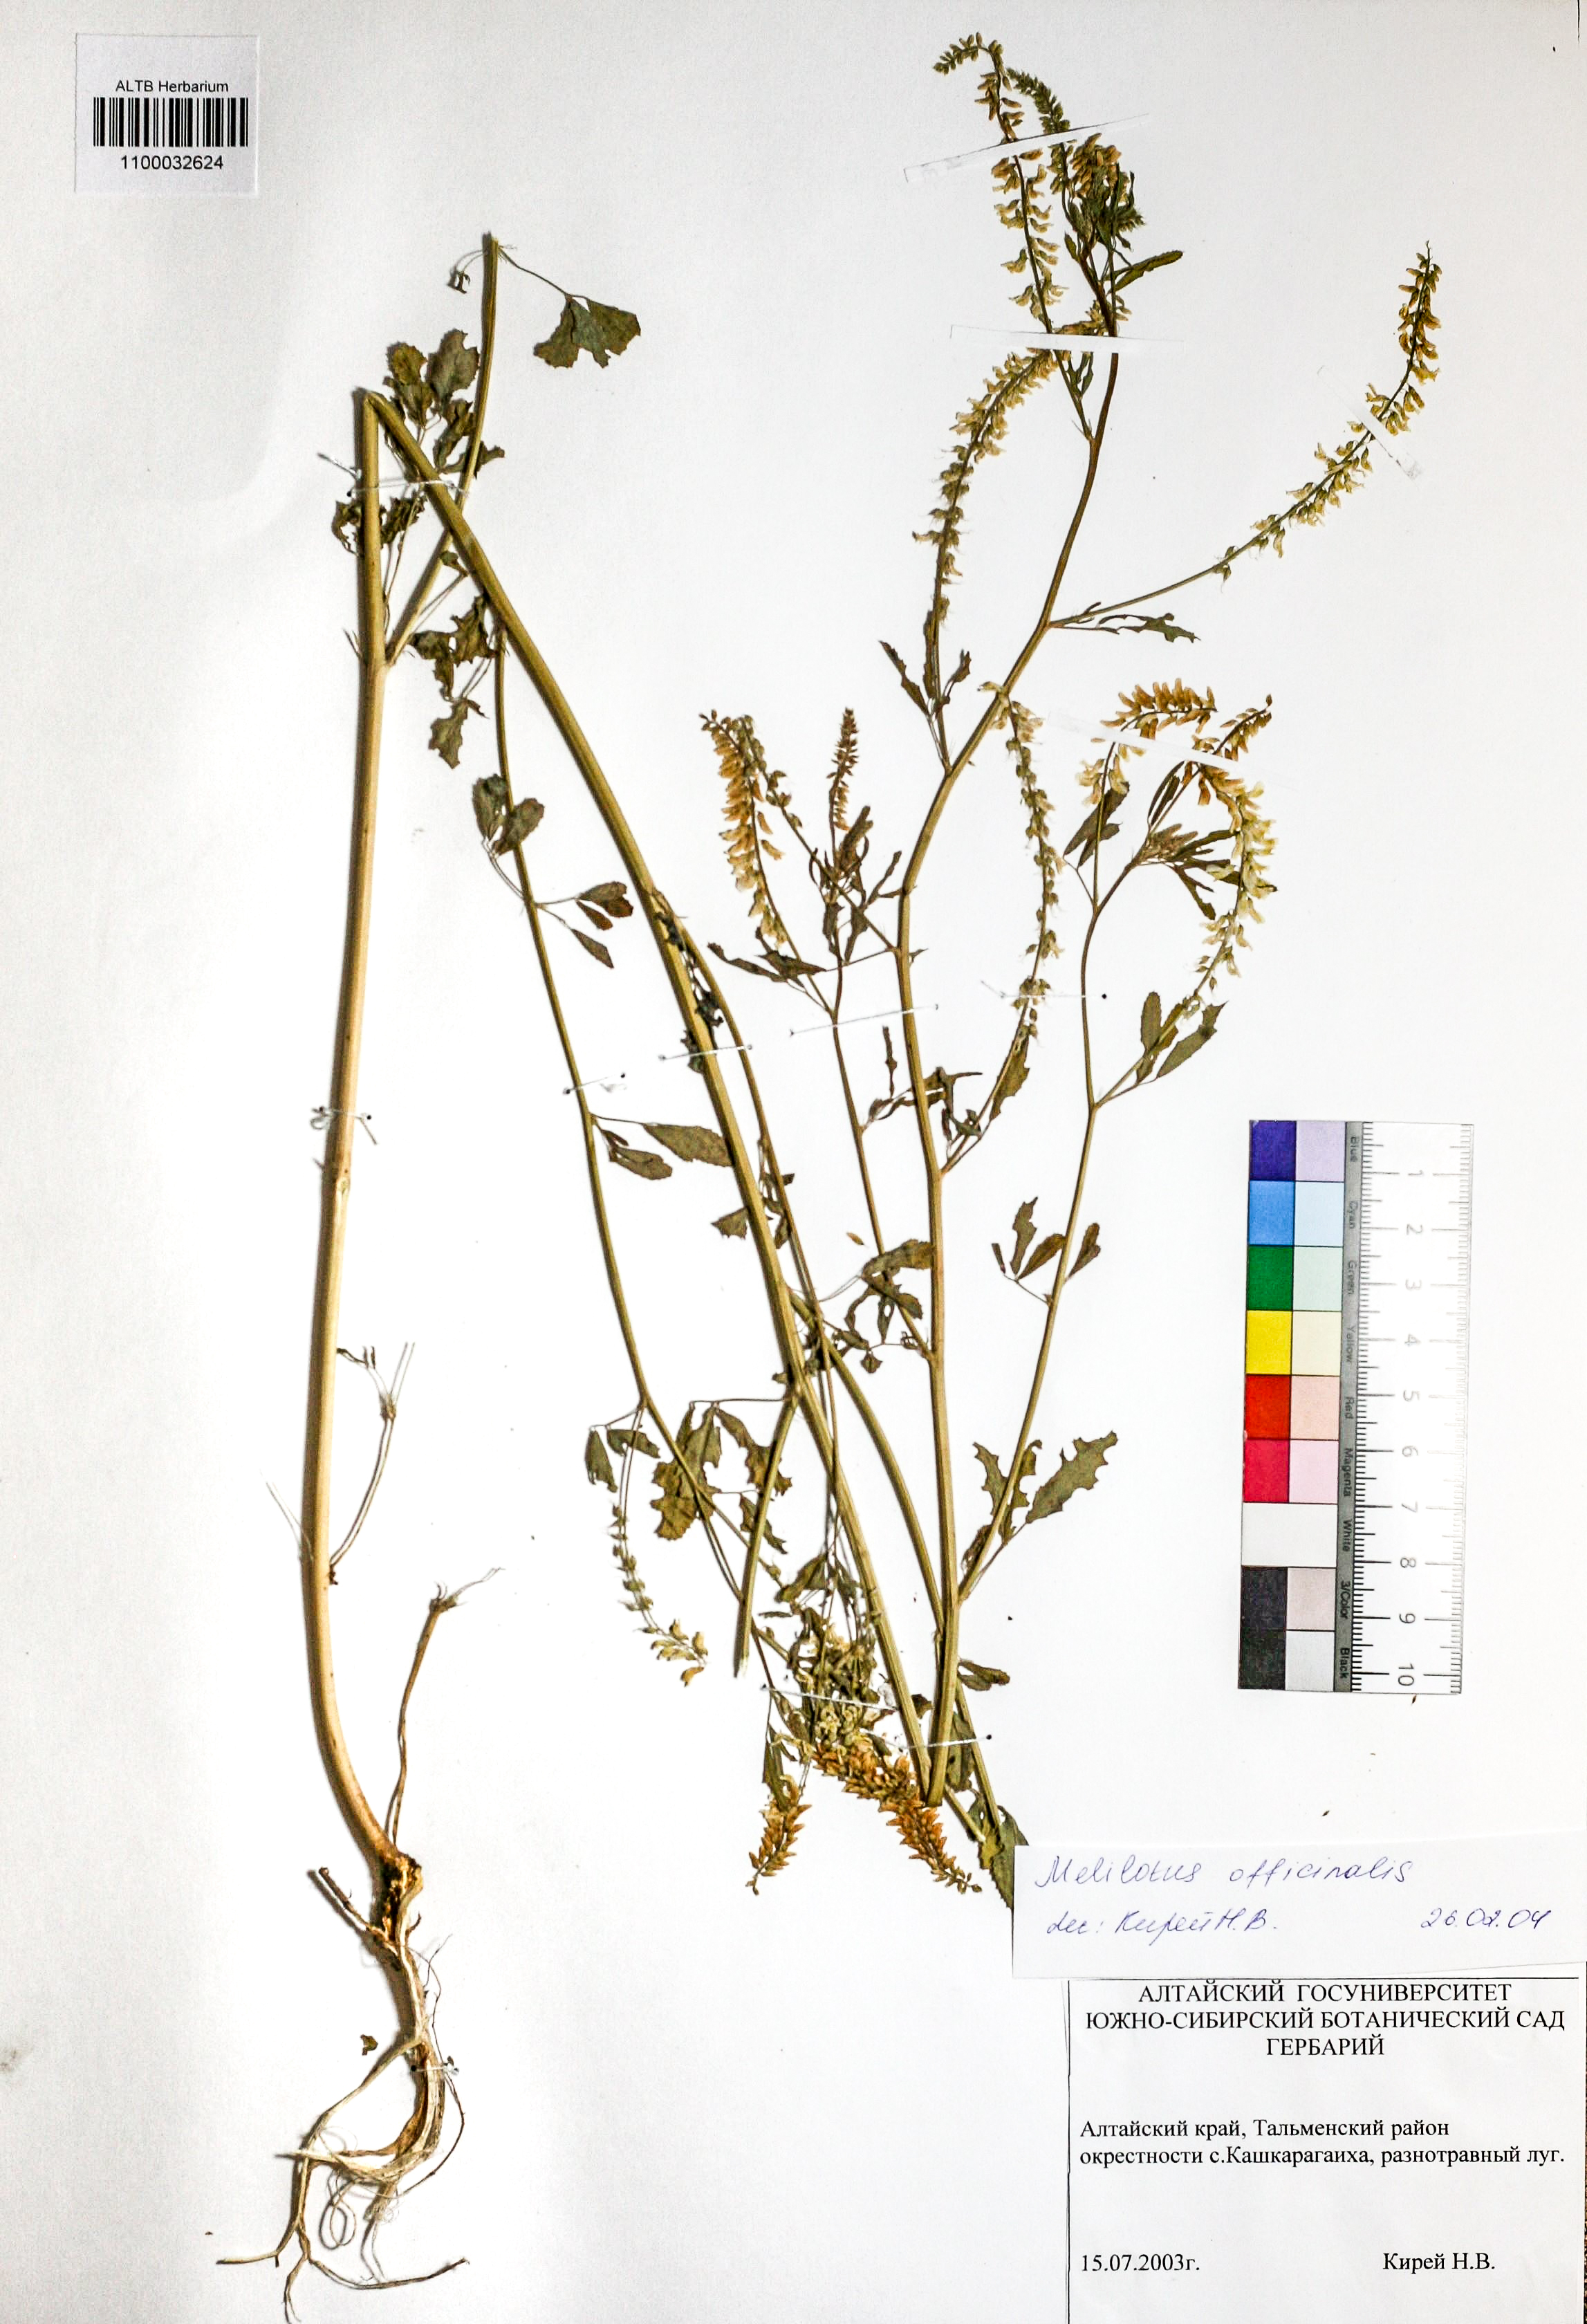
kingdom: Plantae
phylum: Tracheophyta
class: Magnoliopsida
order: Fabales
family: Fabaceae
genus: Melilotus
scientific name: Melilotus officinalis
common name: Sweetclover
